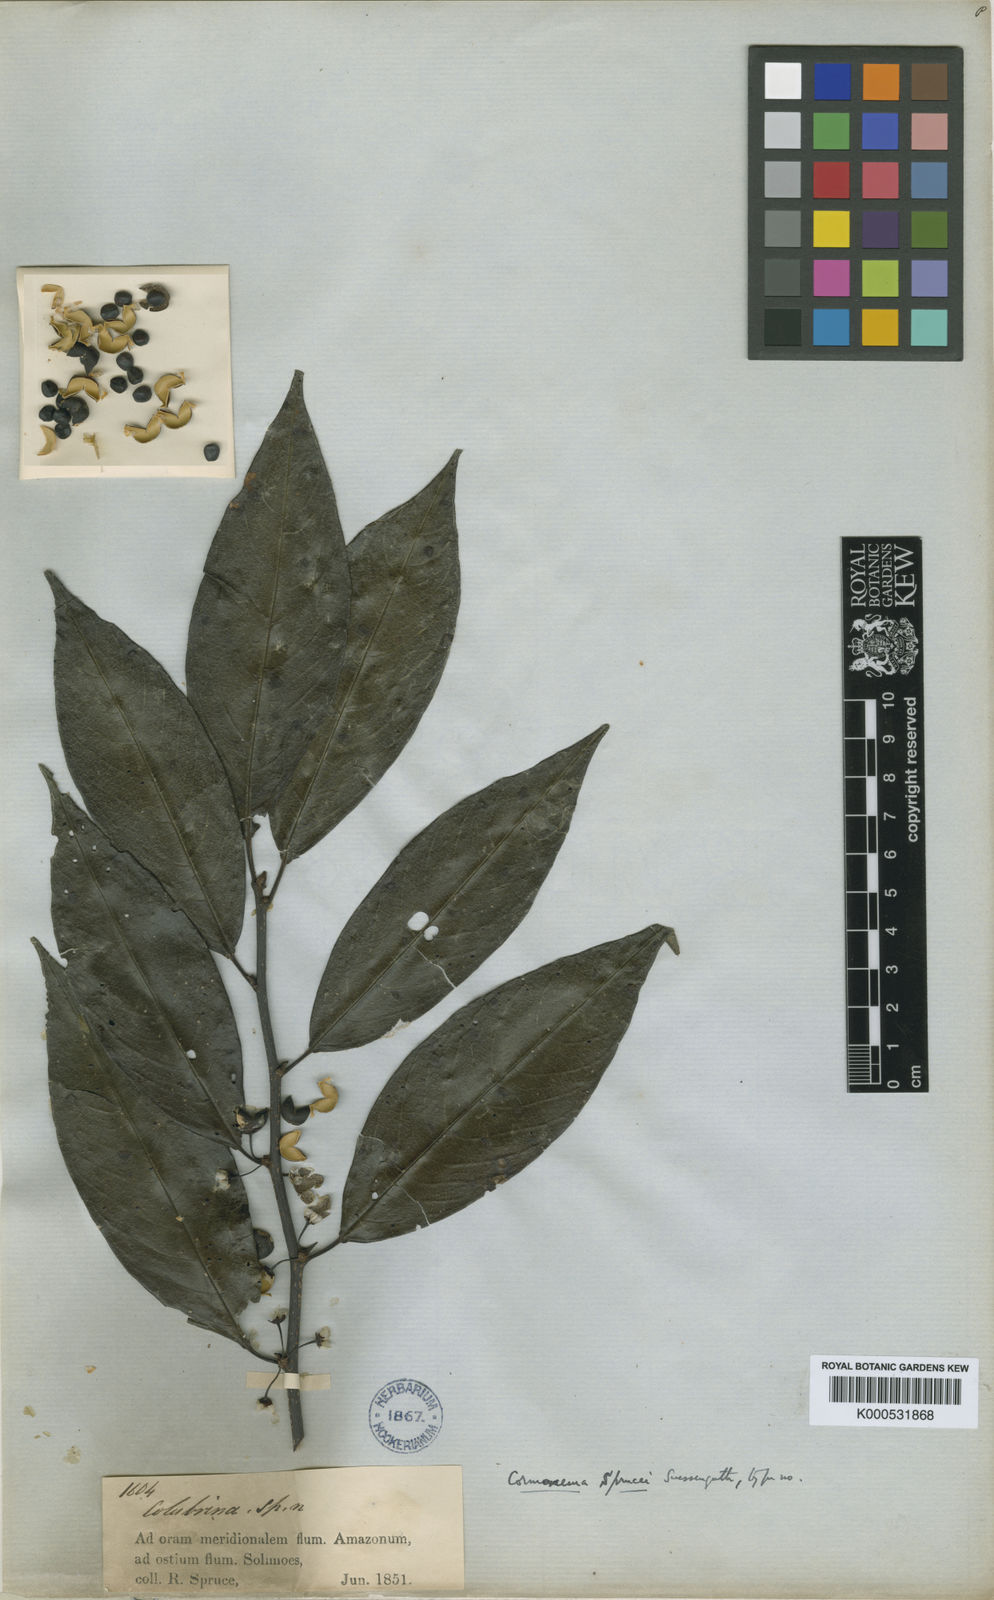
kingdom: Plantae
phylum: Tracheophyta
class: Magnoliopsida
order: Rosales
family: Rhamnaceae
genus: Colubrina
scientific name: Colubrina retusa
